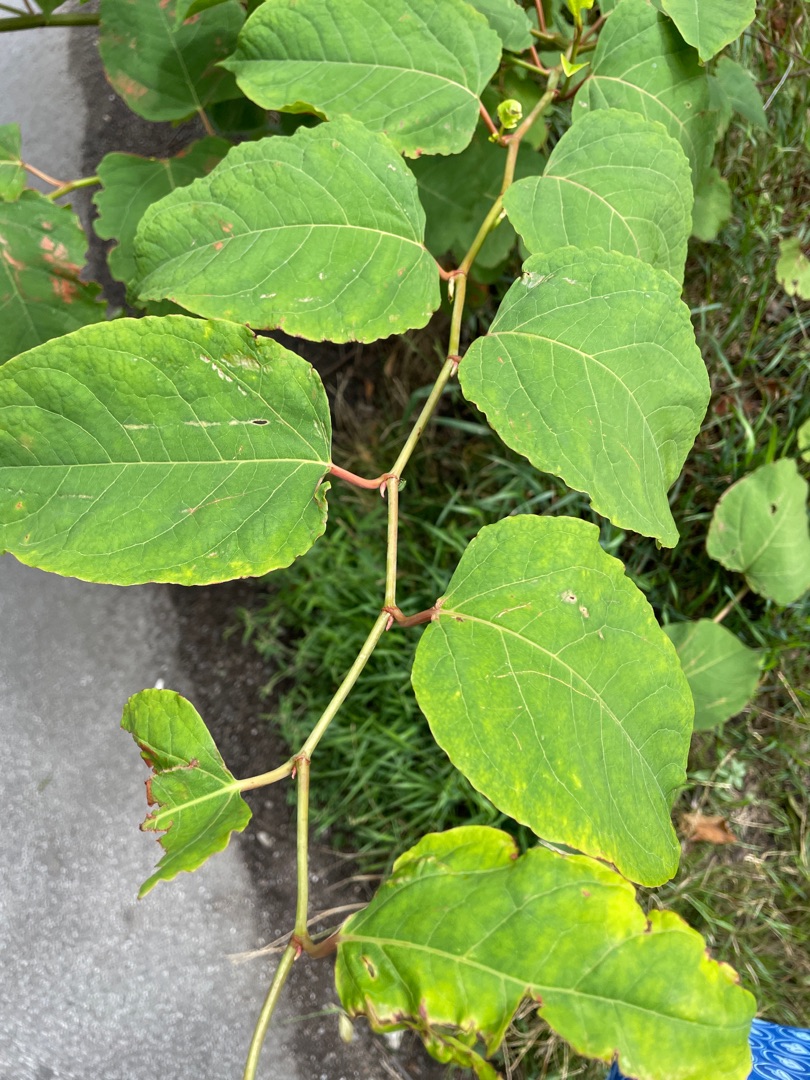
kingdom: Plantae
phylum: Tracheophyta
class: Magnoliopsida
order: Caryophyllales
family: Polygonaceae
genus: Reynoutria
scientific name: Reynoutria bohemica
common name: Hybrid-pileurt
